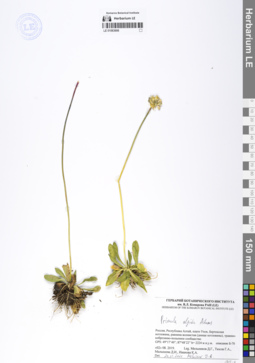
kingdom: Plantae
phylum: Tracheophyta
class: Magnoliopsida
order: Ericales
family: Primulaceae
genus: Primula
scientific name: Primula algida
